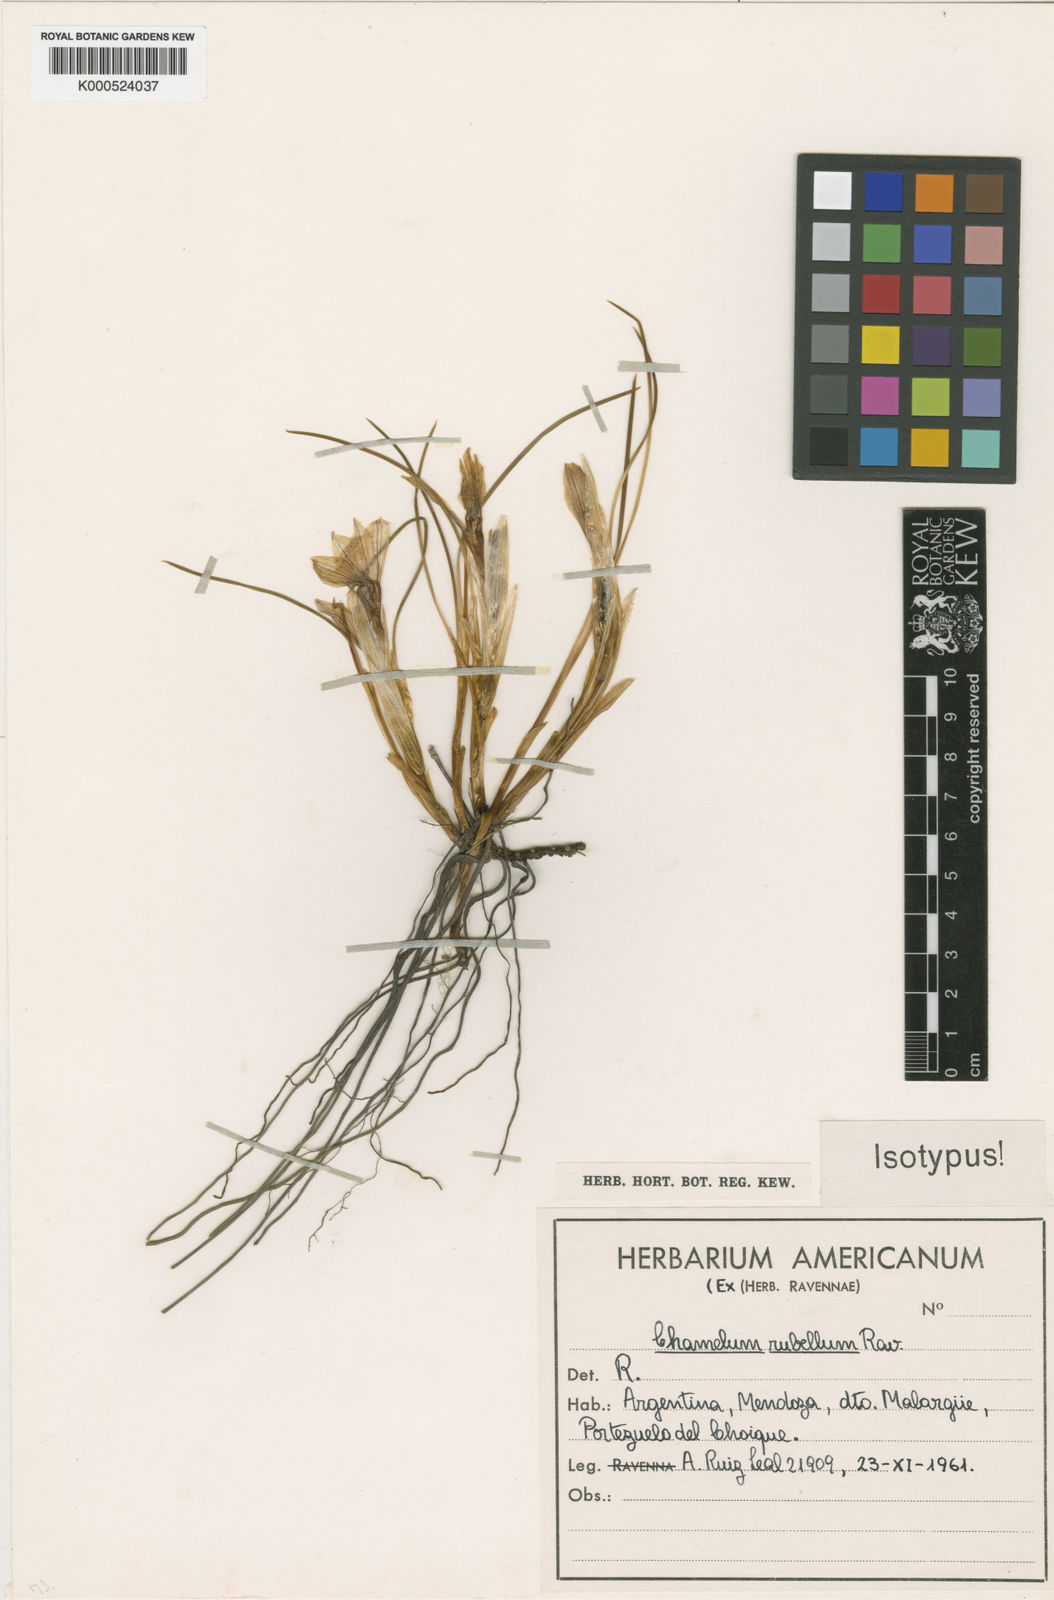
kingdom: Plantae
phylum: Tracheophyta
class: Liliopsida
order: Asparagales
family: Iridaceae
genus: Olsynium
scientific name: Olsynium bodenbenderi
